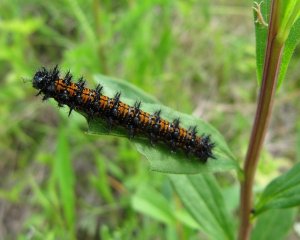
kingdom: Animalia
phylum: Arthropoda
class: Insecta
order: Lepidoptera
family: Nymphalidae
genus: Nymphalis
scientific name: Nymphalis antiopa
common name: Mourning Cloak
